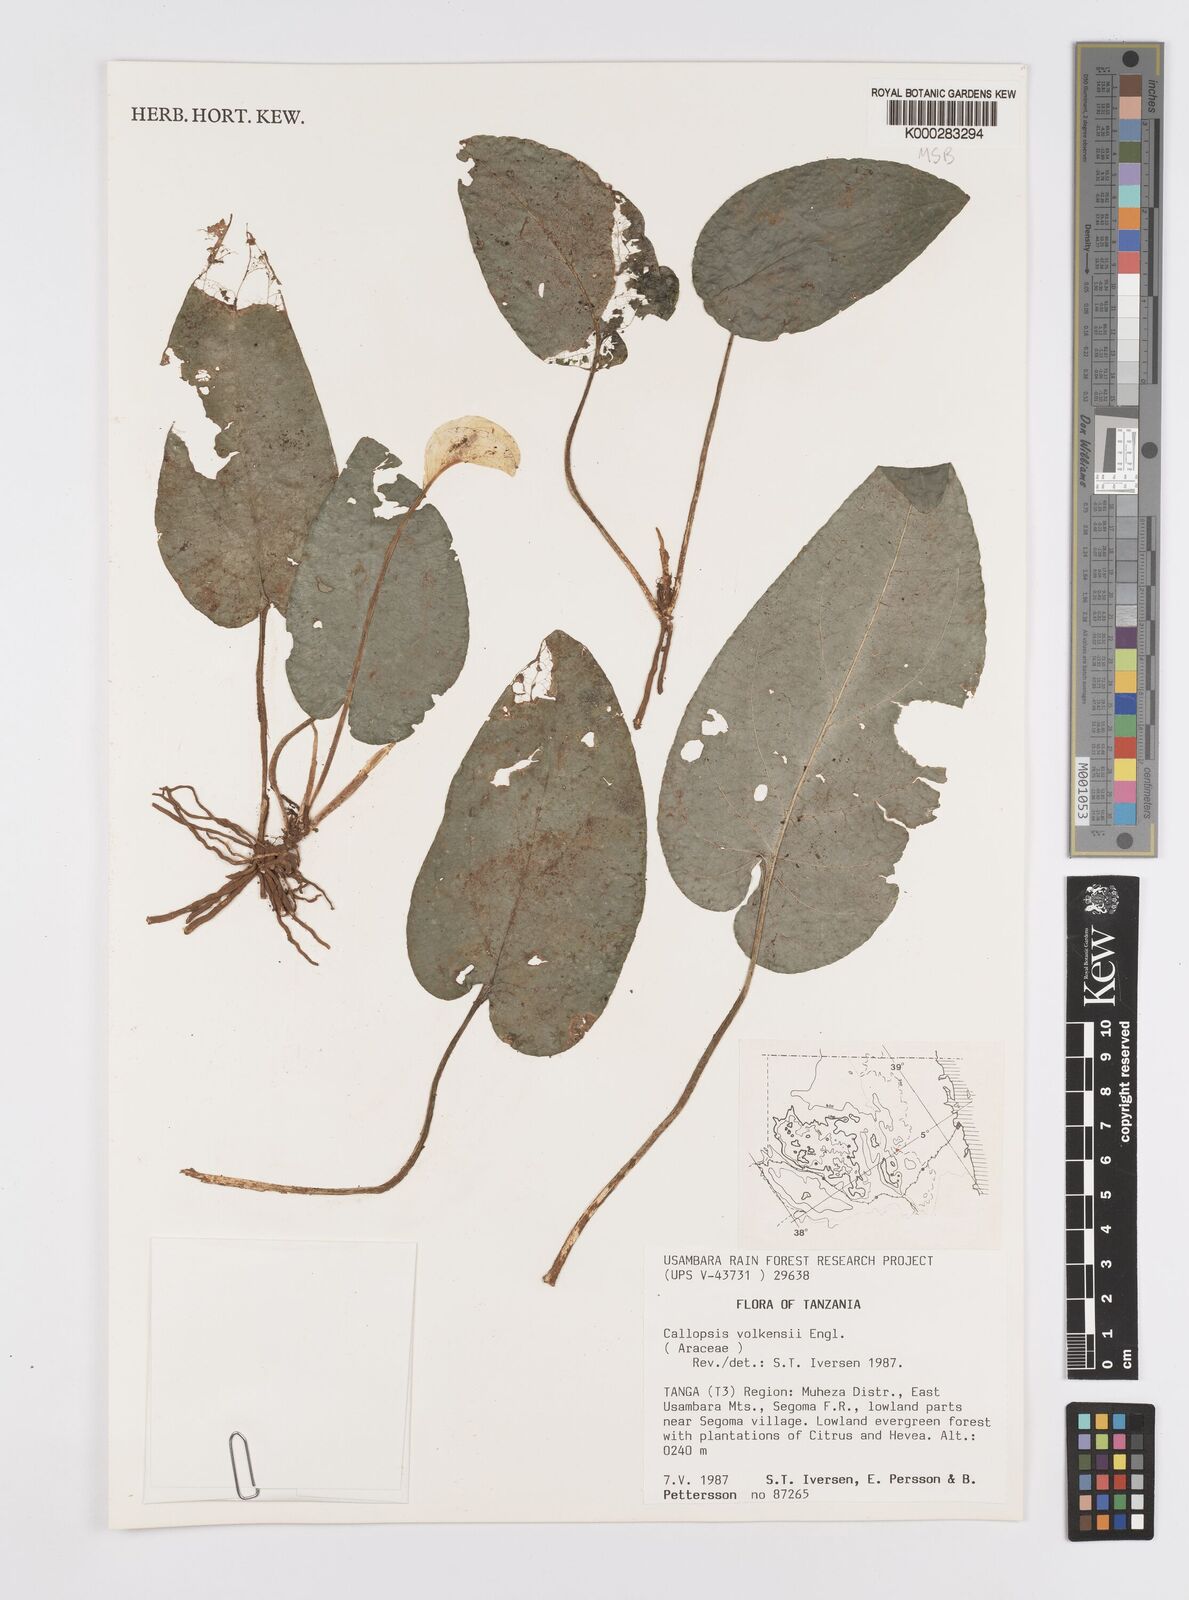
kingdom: Plantae
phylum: Tracheophyta
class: Liliopsida
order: Alismatales
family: Araceae
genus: Callopsis
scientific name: Callopsis volkensii
